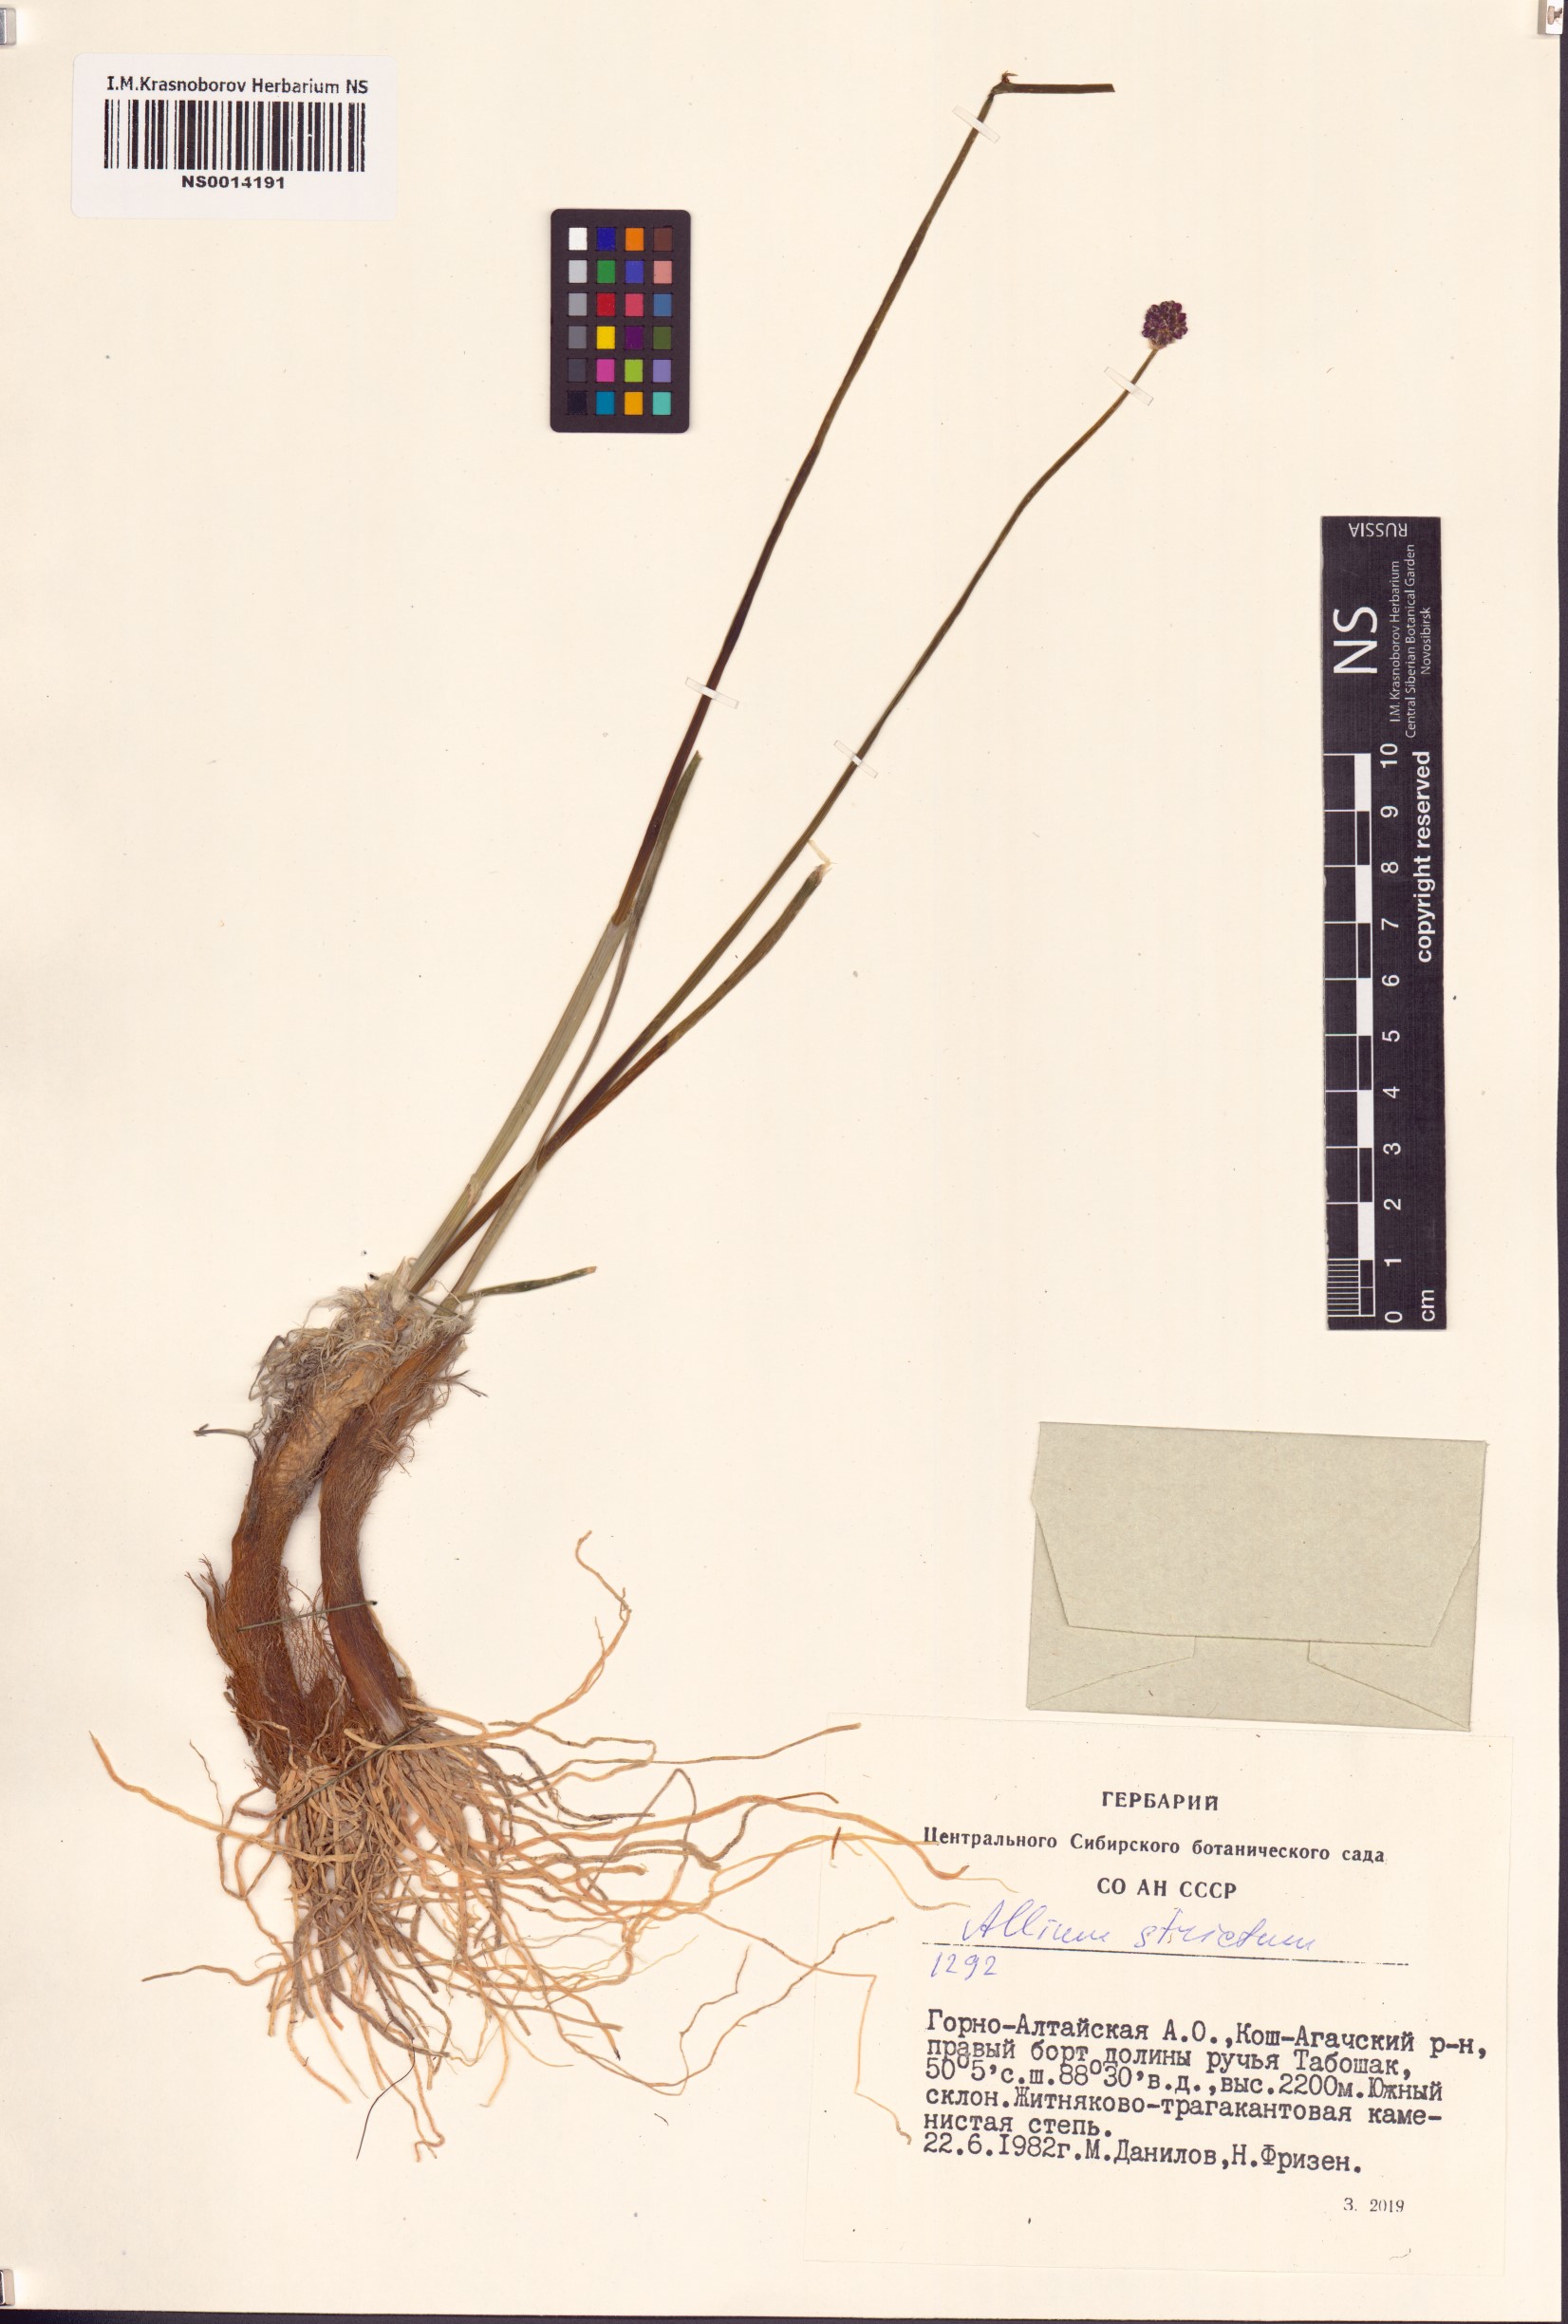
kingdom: Plantae
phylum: Tracheophyta
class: Liliopsida
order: Asparagales
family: Amaryllidaceae
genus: Allium
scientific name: Allium strictum
